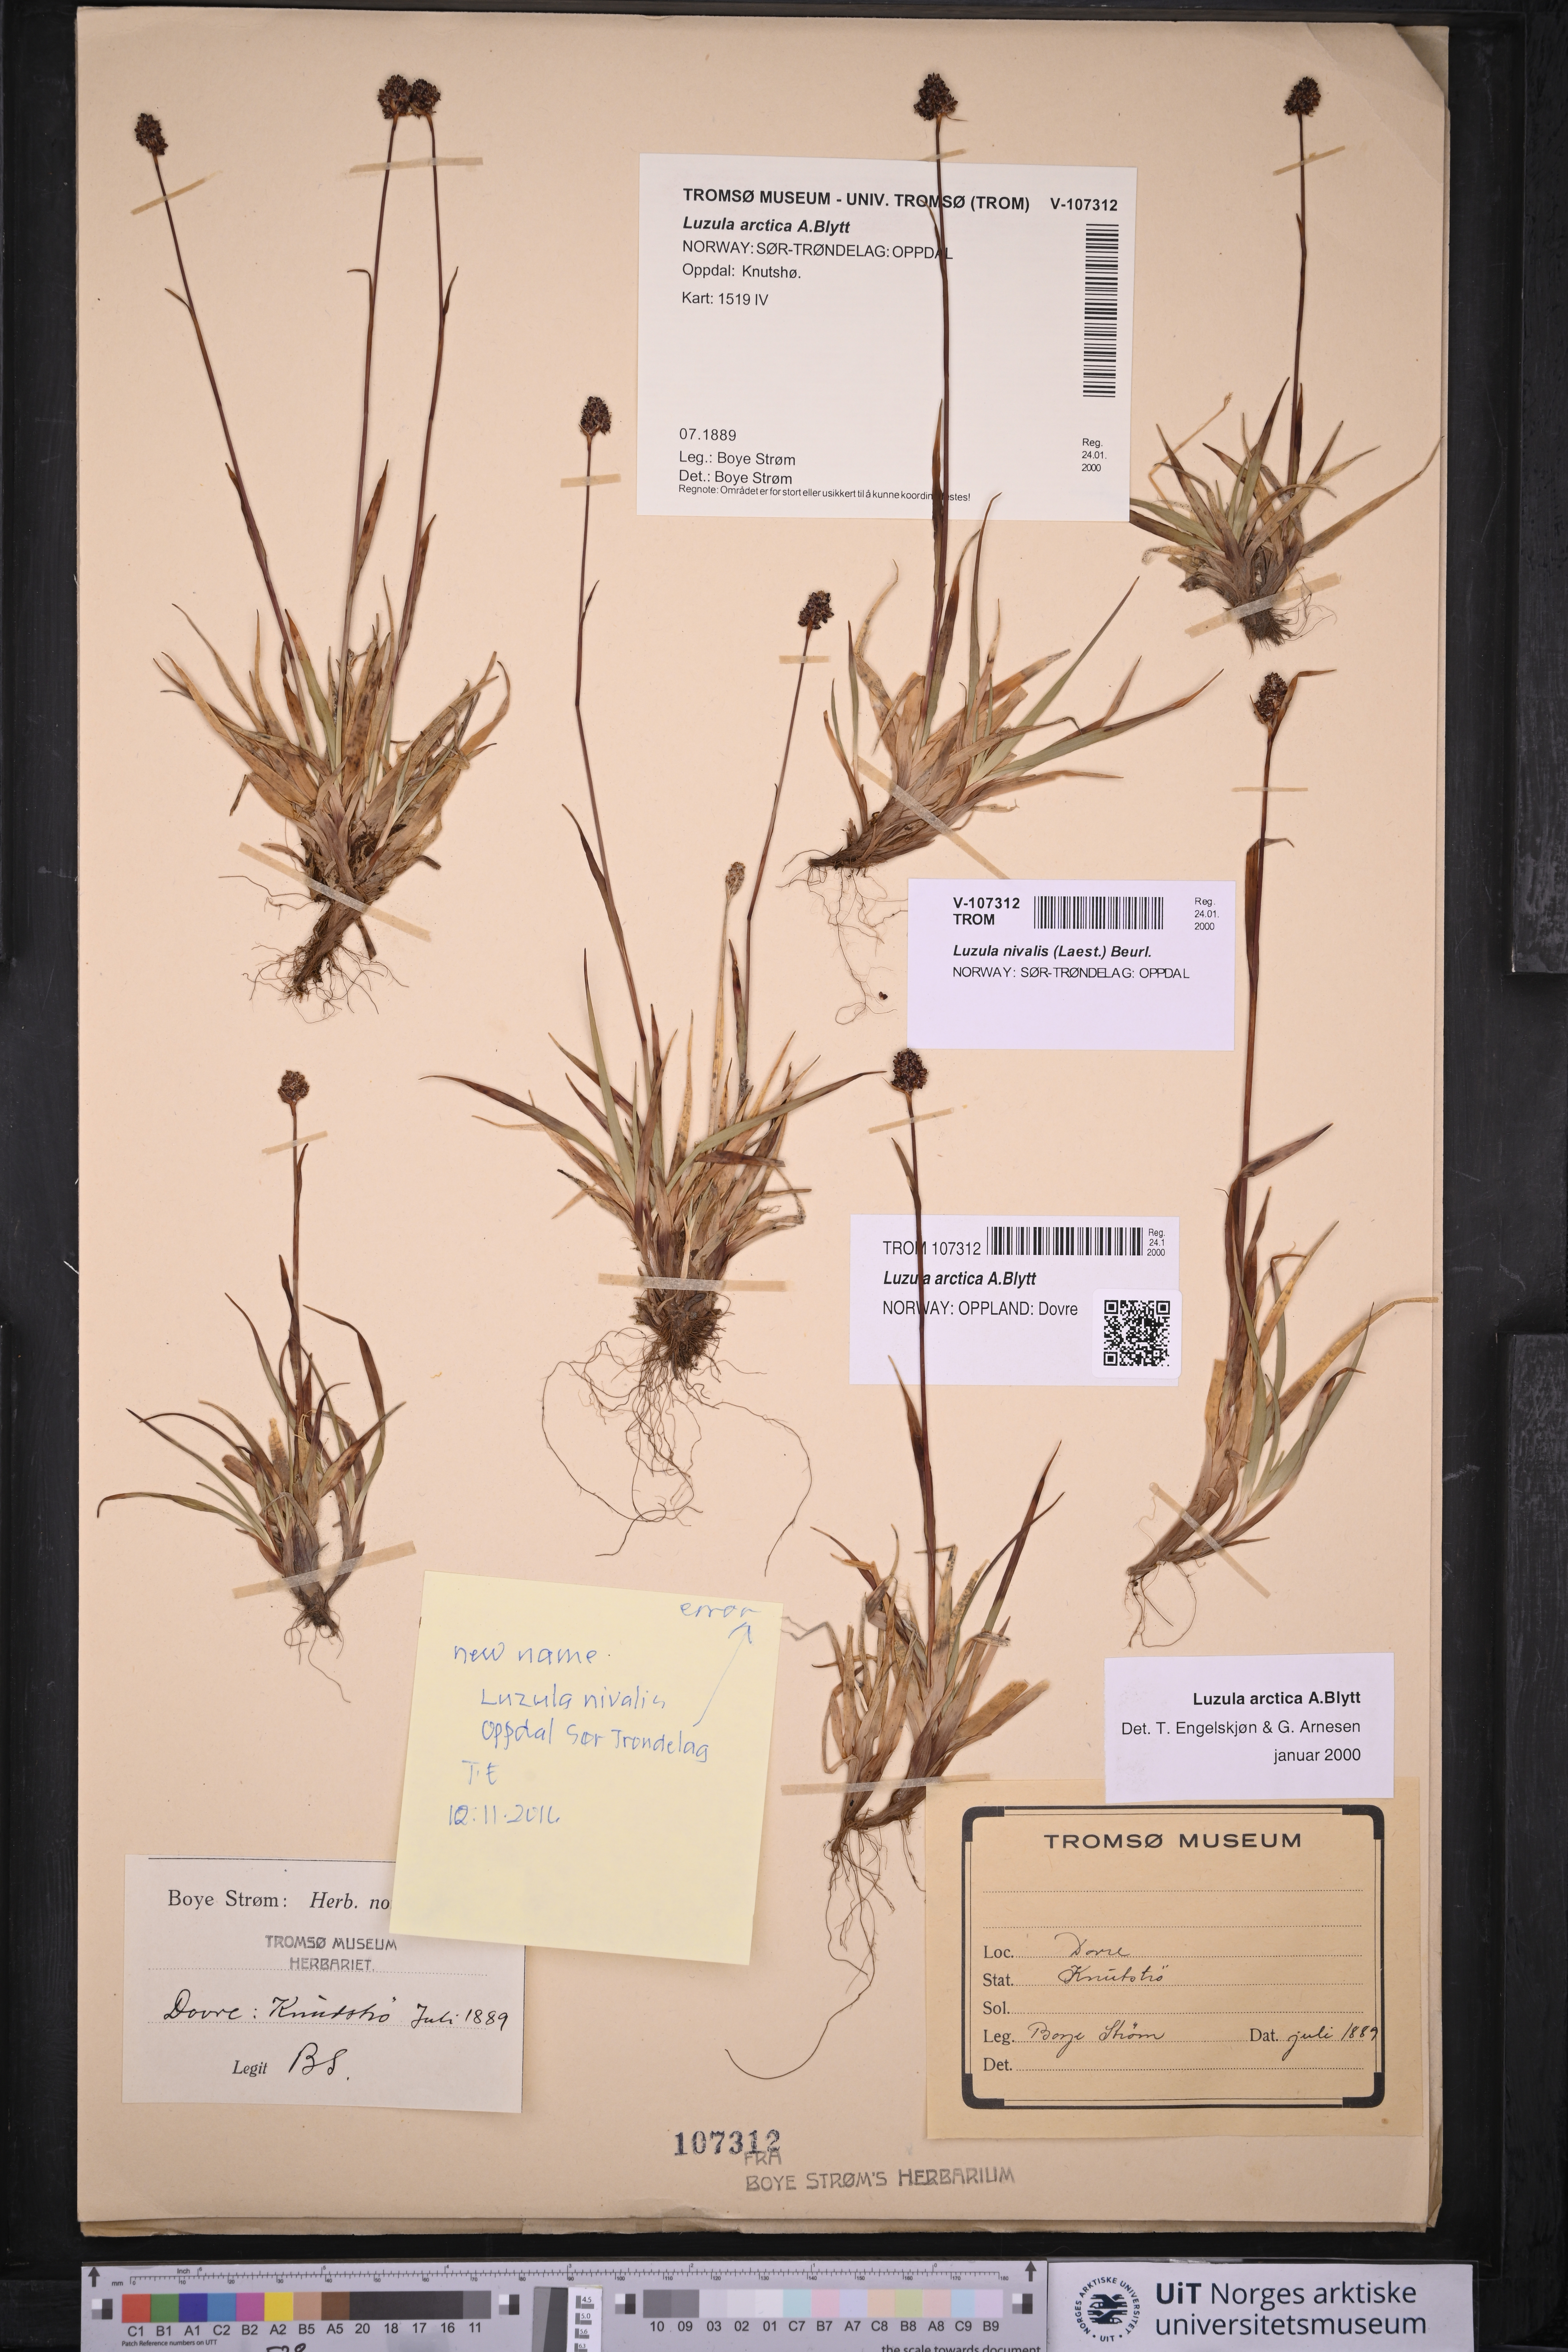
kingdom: Plantae
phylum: Tracheophyta
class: Liliopsida
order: Poales
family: Juncaceae
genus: Luzula
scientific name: Luzula nivalis
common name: Arctic woodrush
